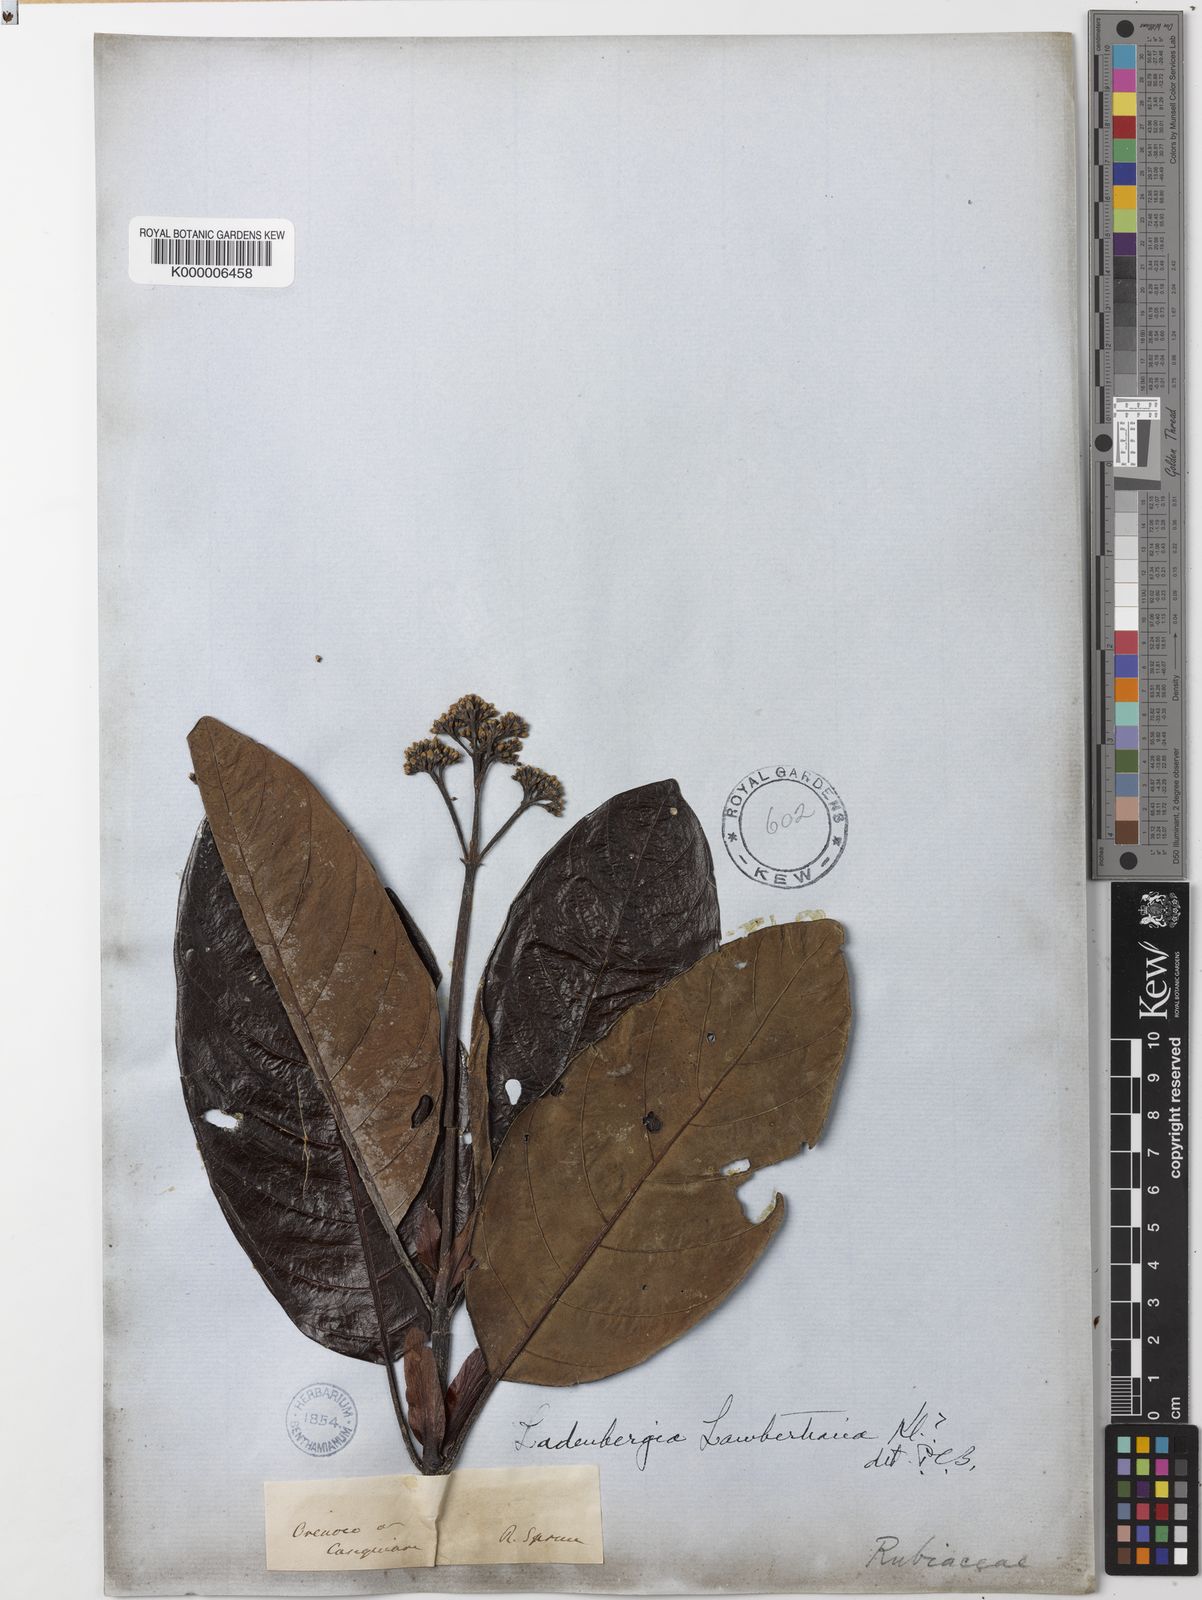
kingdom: Plantae
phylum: Tracheophyta
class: Magnoliopsida
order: Gentianales
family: Rubiaceae
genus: Ladenbergia
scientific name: Ladenbergia
